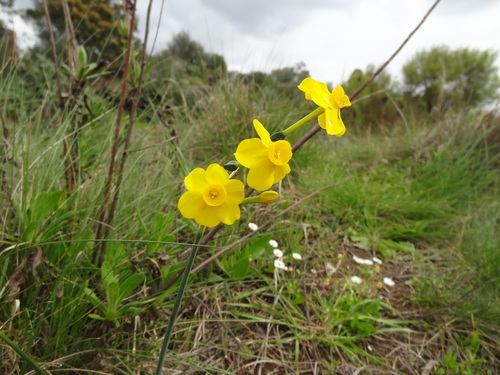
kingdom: Plantae
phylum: Tracheophyta
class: Liliopsida
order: Asparagales
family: Amaryllidaceae
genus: Narcissus
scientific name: Narcissus jonquilla
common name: Jonquil
